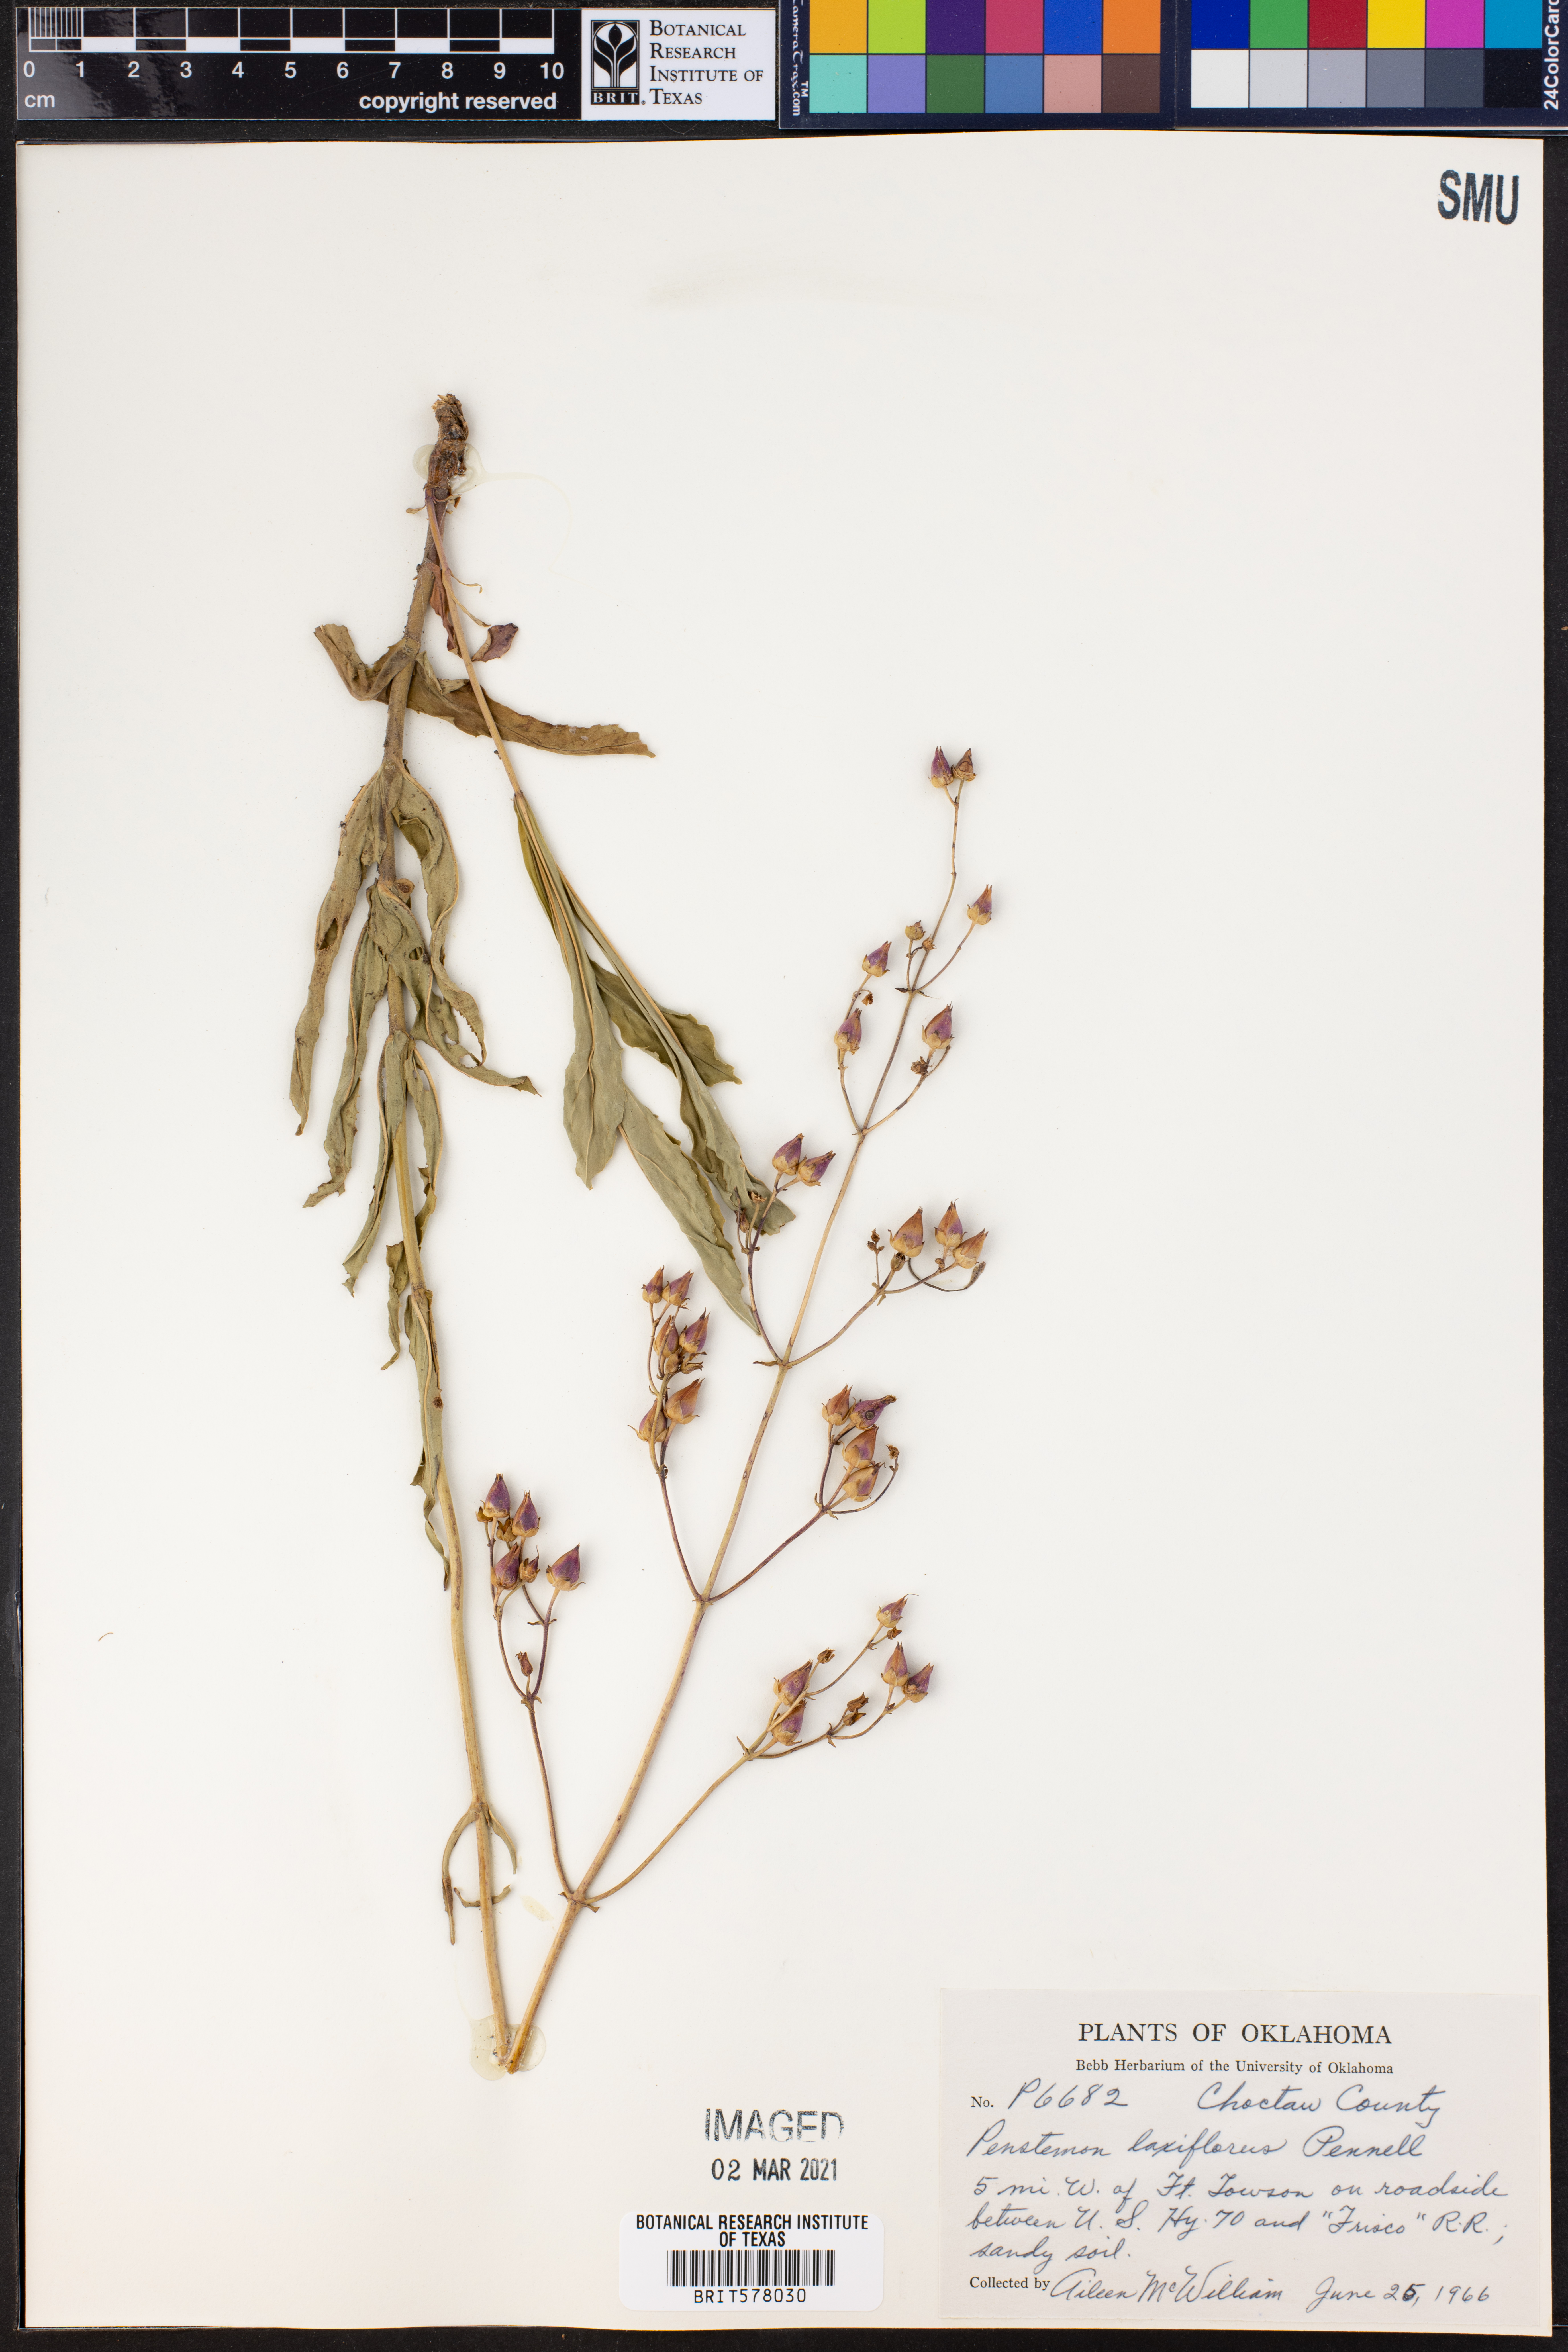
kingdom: Plantae
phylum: Tracheophyta
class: Magnoliopsida
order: Lamiales
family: Plantaginaceae
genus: Penstemon
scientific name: Penstemon laxiflorus
